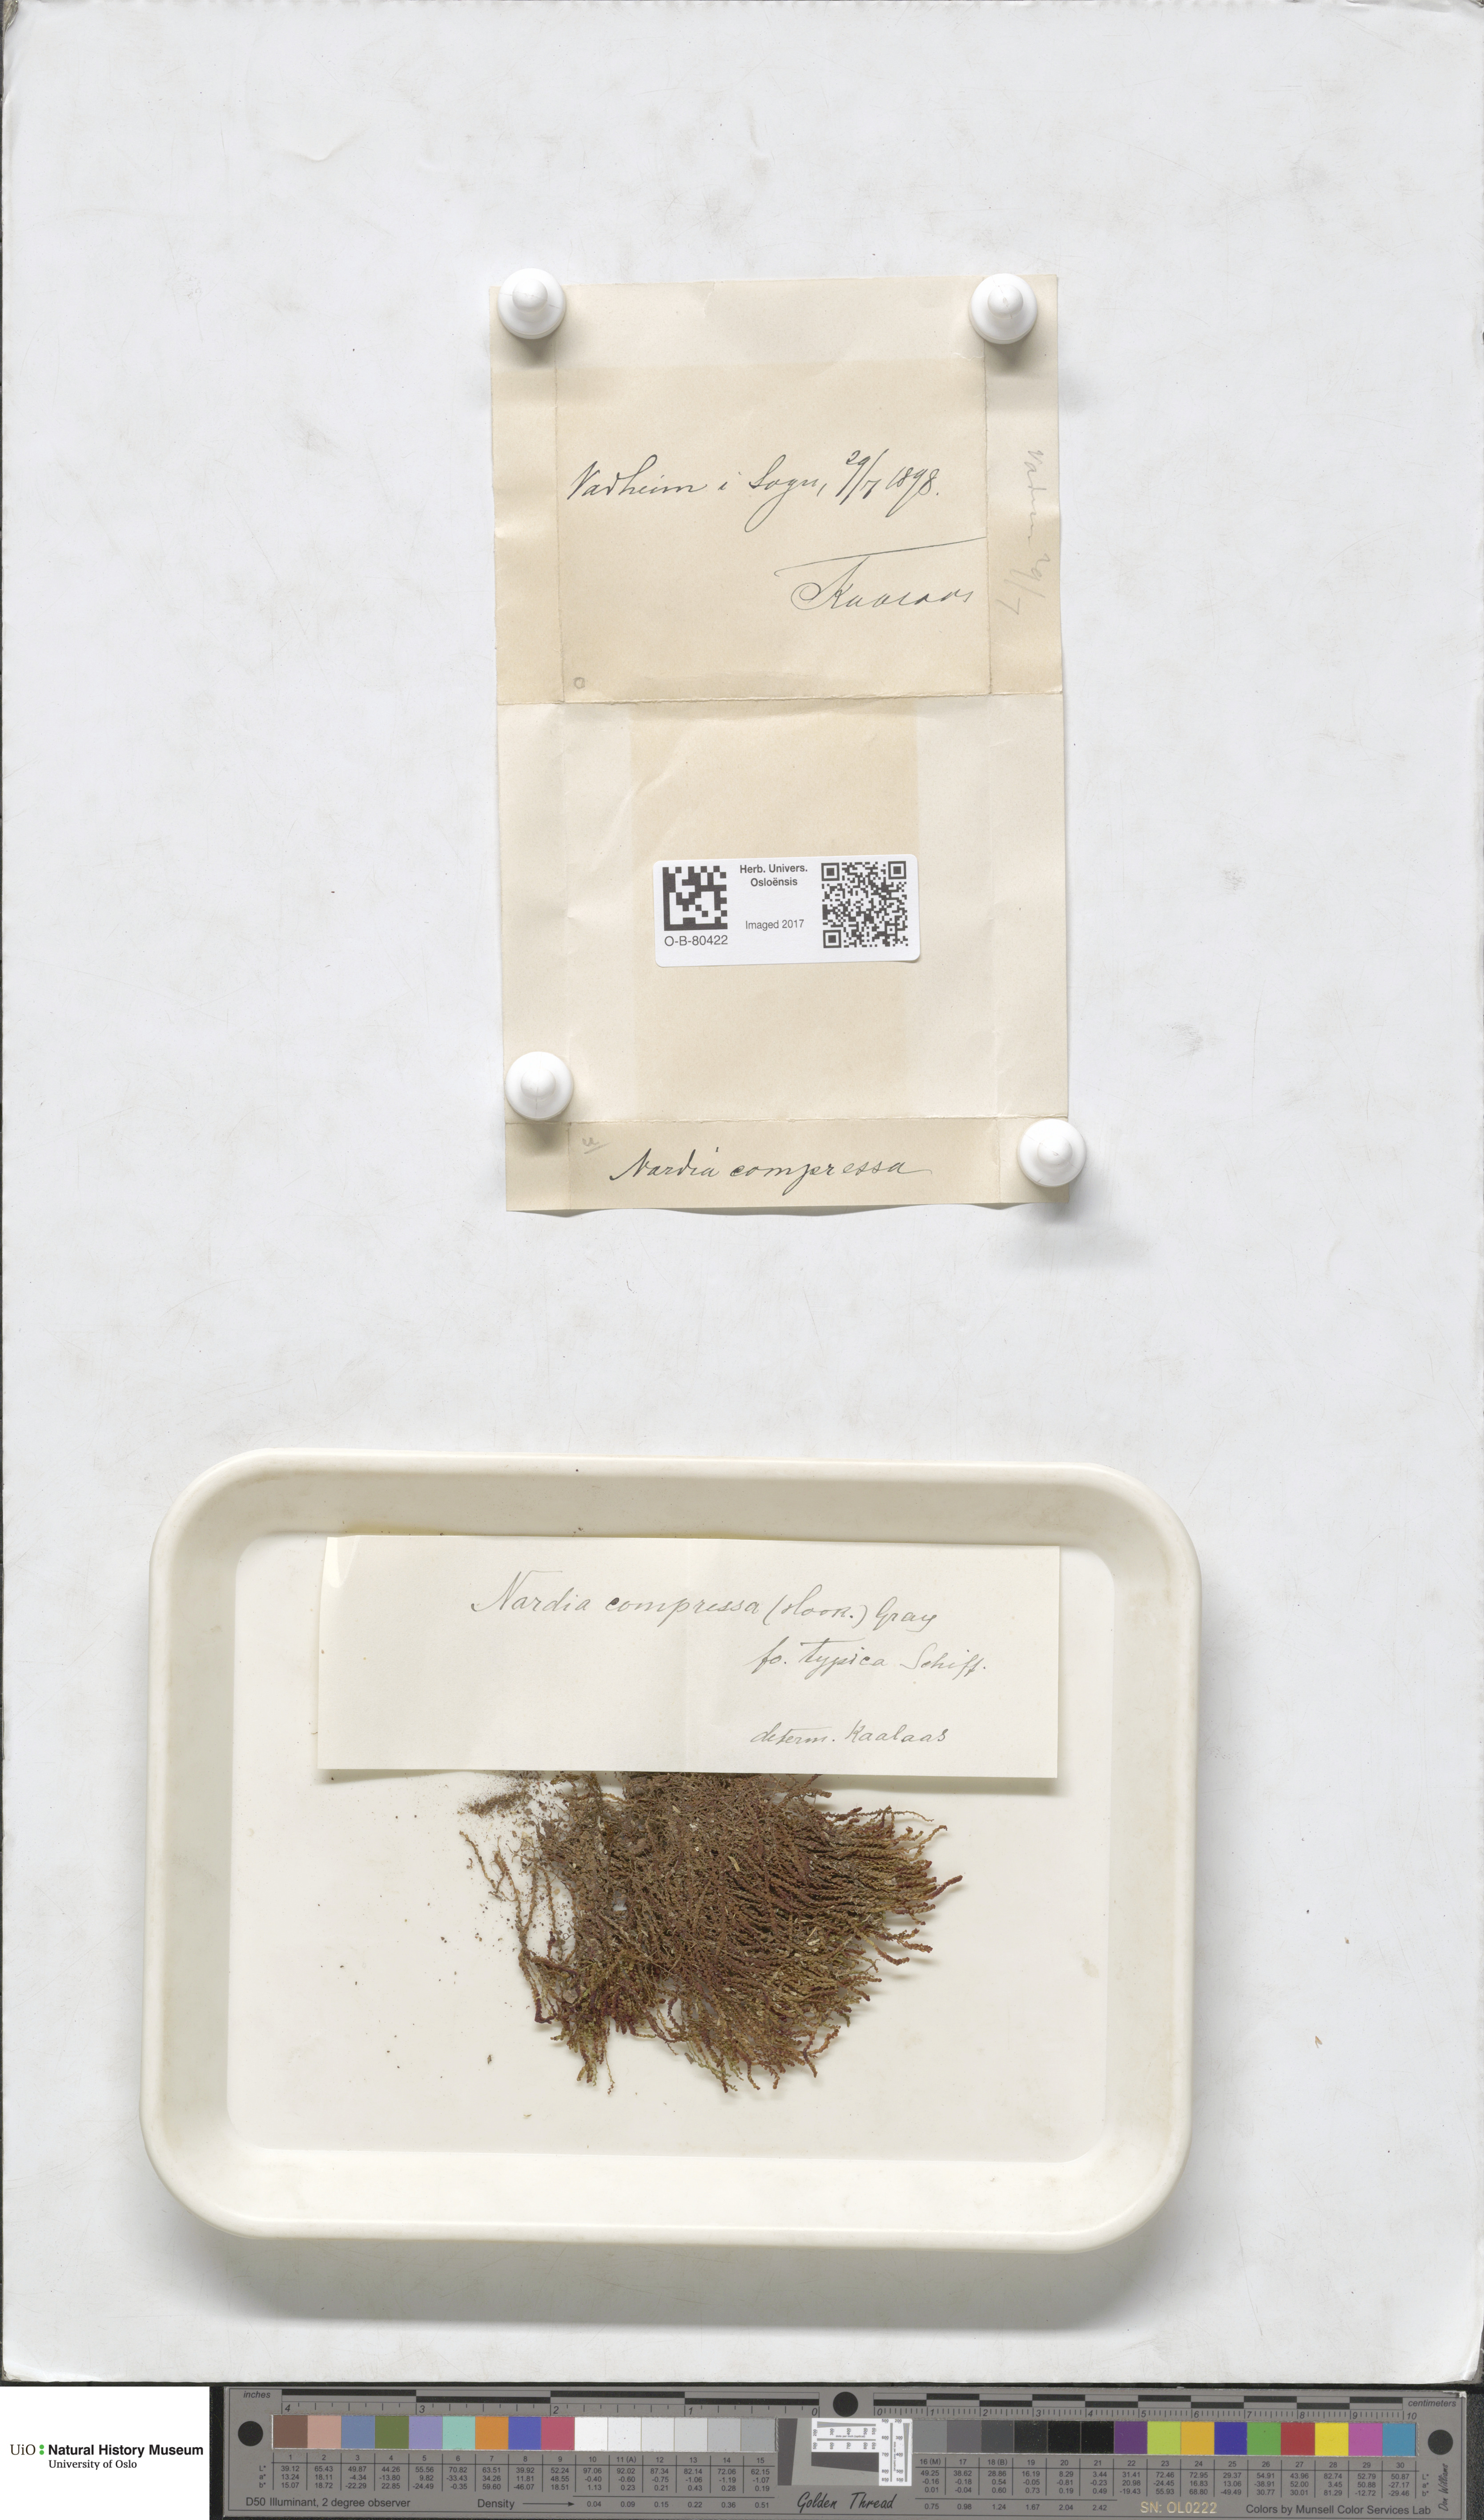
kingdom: Plantae
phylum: Marchantiophyta
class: Jungermanniopsida
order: Jungermanniales
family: Gymnomitriaceae
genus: Nardia
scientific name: Nardia compressa
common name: Compressed flapwort
